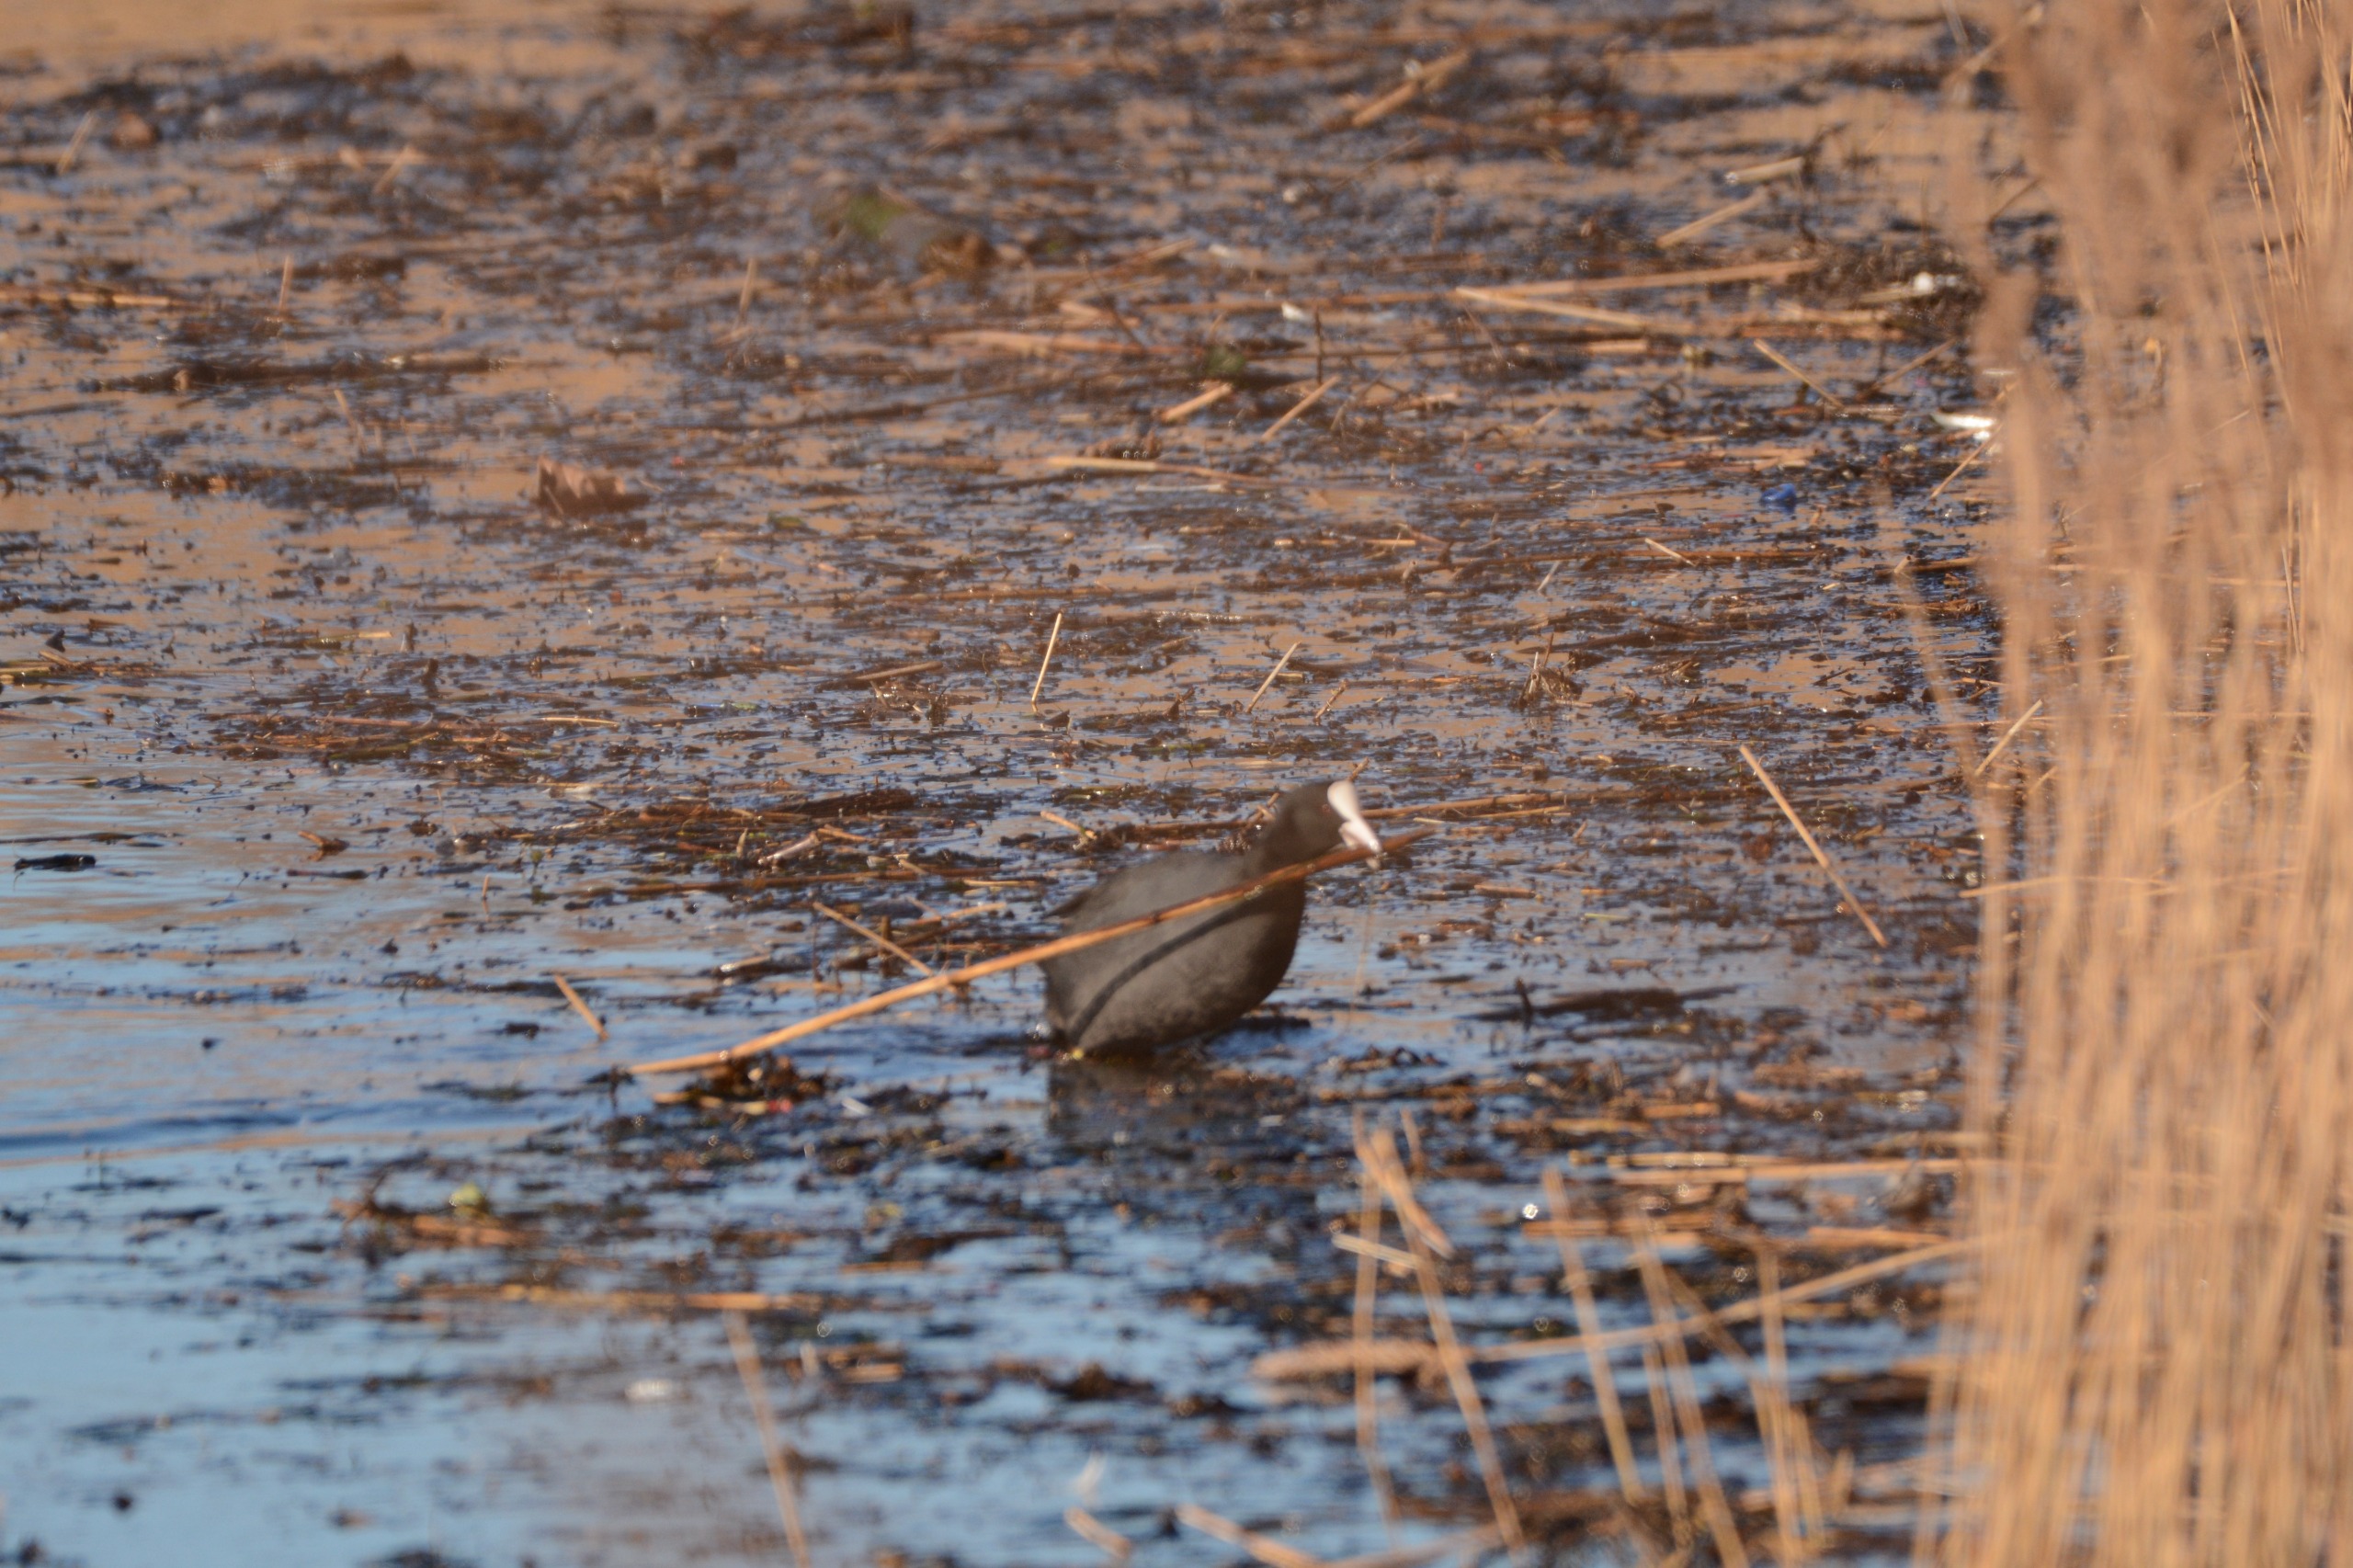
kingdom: Animalia
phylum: Chordata
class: Aves
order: Gruiformes
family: Rallidae
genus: Fulica
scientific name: Fulica atra
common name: Blishøne
